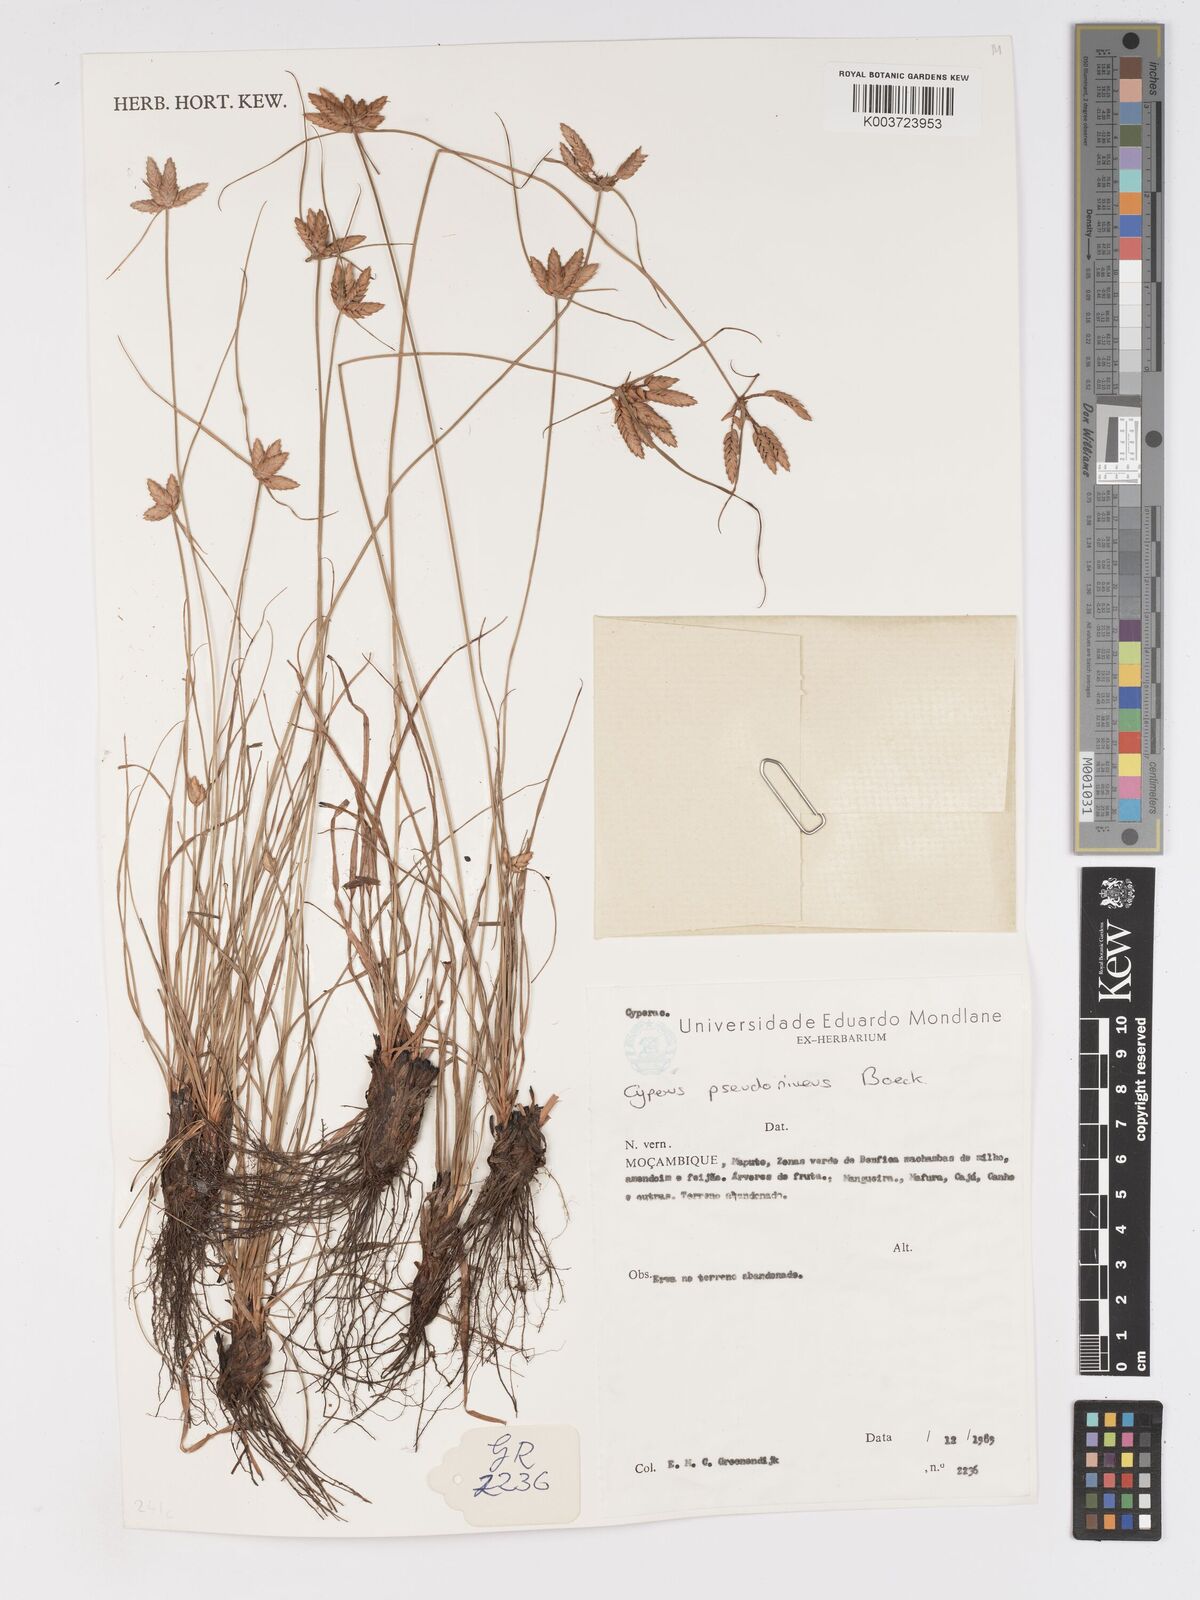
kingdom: Plantae
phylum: Tracheophyta
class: Liliopsida
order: Poales
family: Cyperaceae
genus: Cyperus
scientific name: Cyperus margaritaceus
